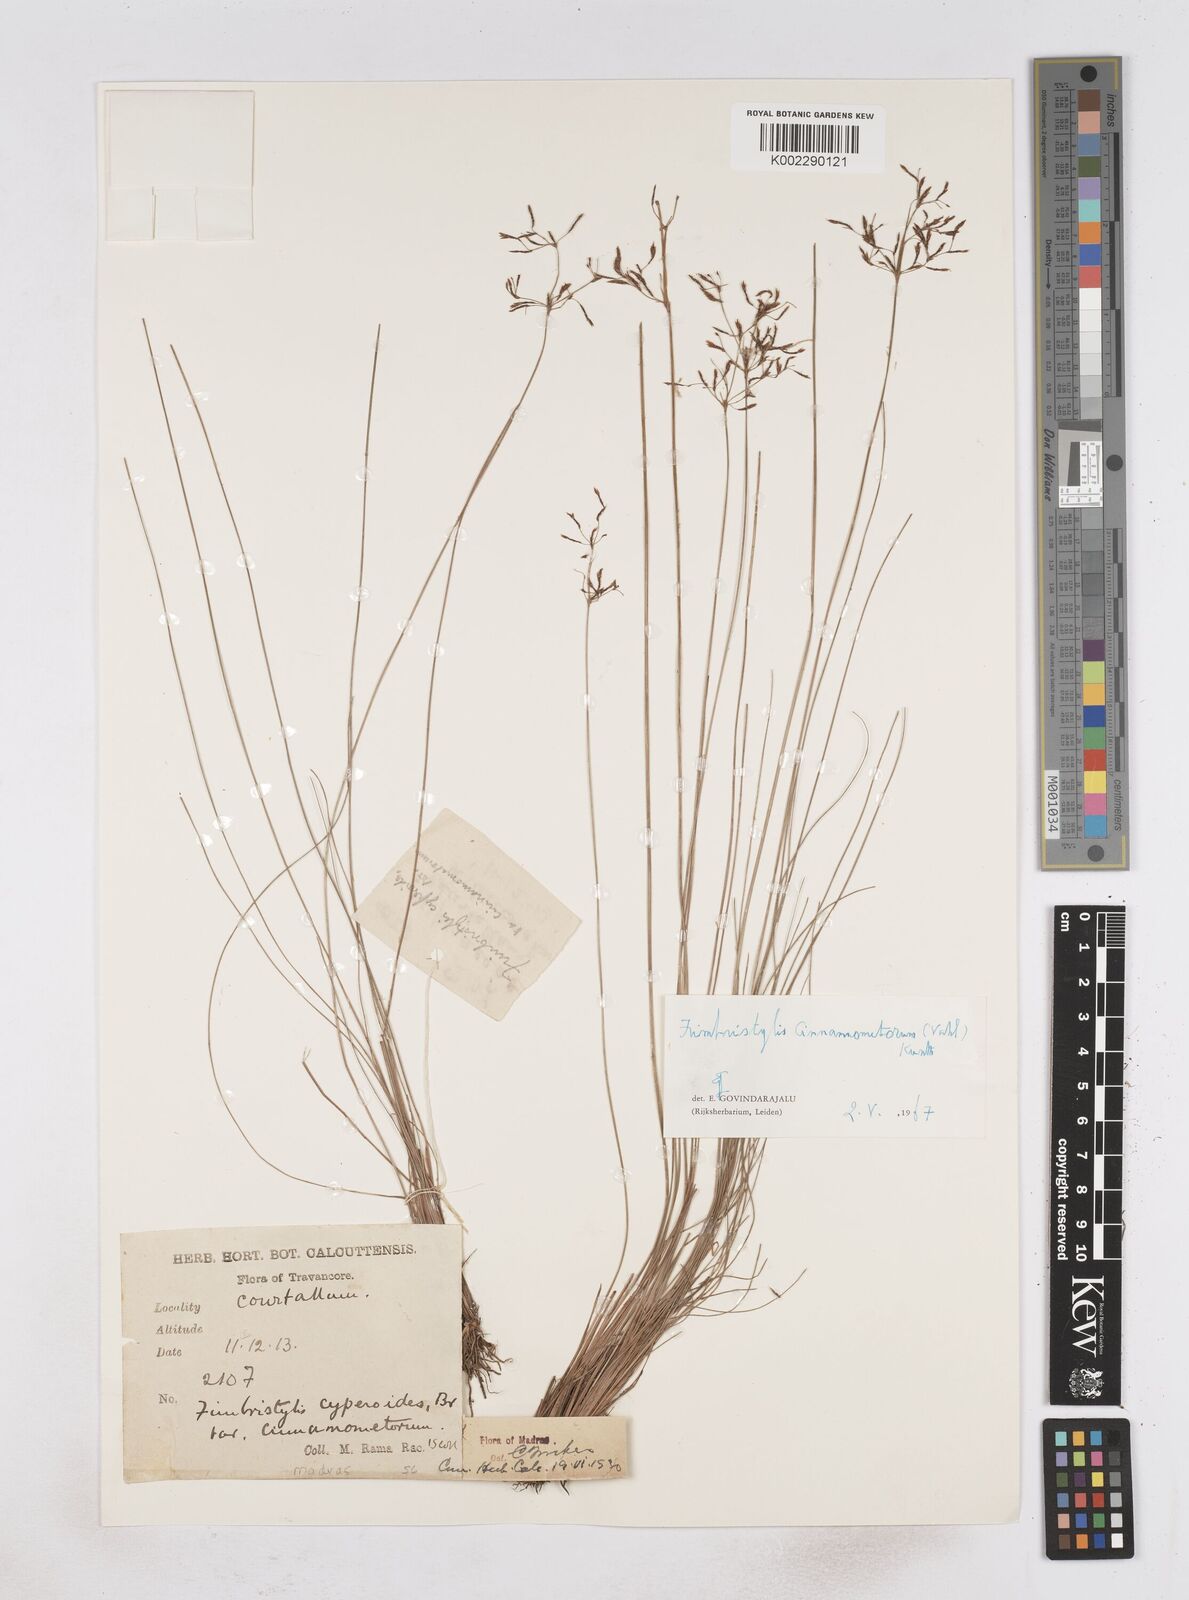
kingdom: Plantae
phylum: Tracheophyta
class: Liliopsida
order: Poales
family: Cyperaceae
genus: Fimbristylis
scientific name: Fimbristylis cinnamometorum
